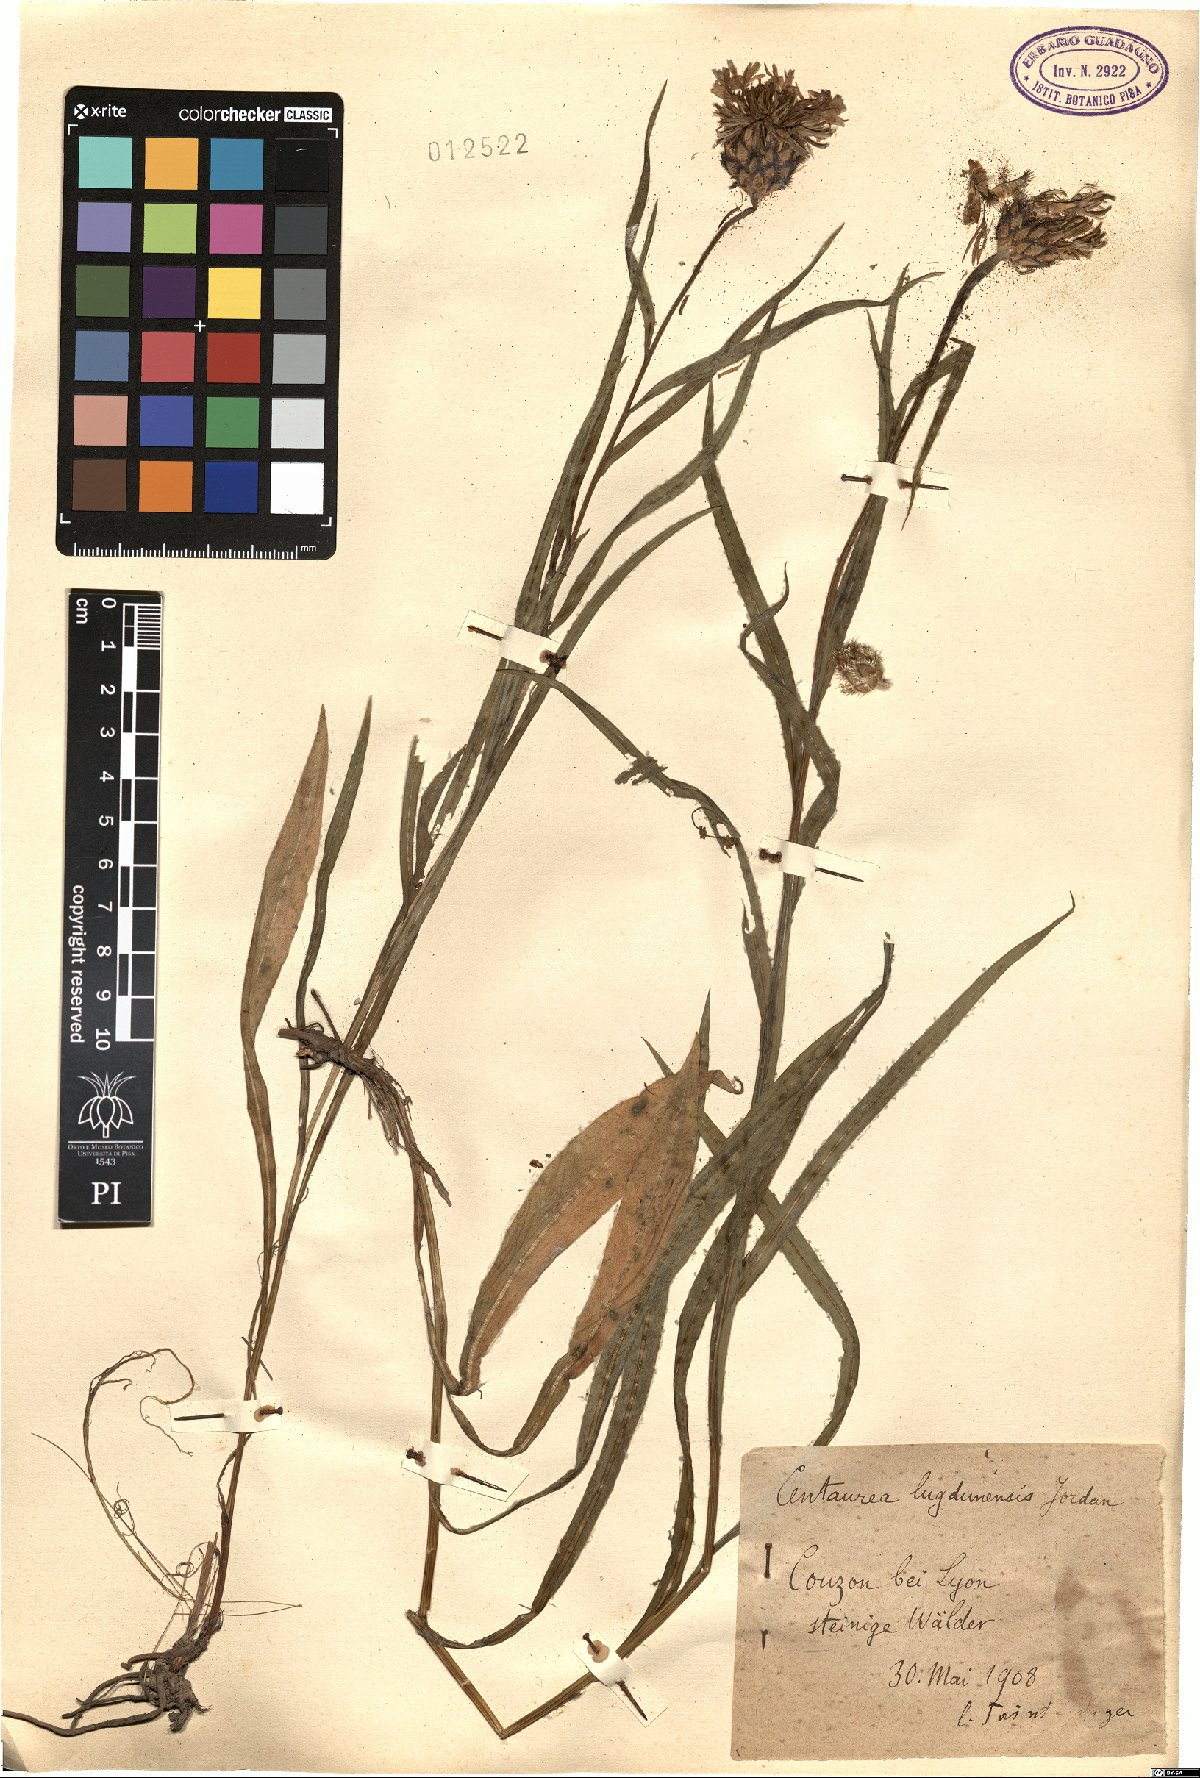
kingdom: Plantae
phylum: Tracheophyta
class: Magnoliopsida
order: Asterales
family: Asteraceae
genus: Centaurea
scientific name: Centaurea lugdunensis
